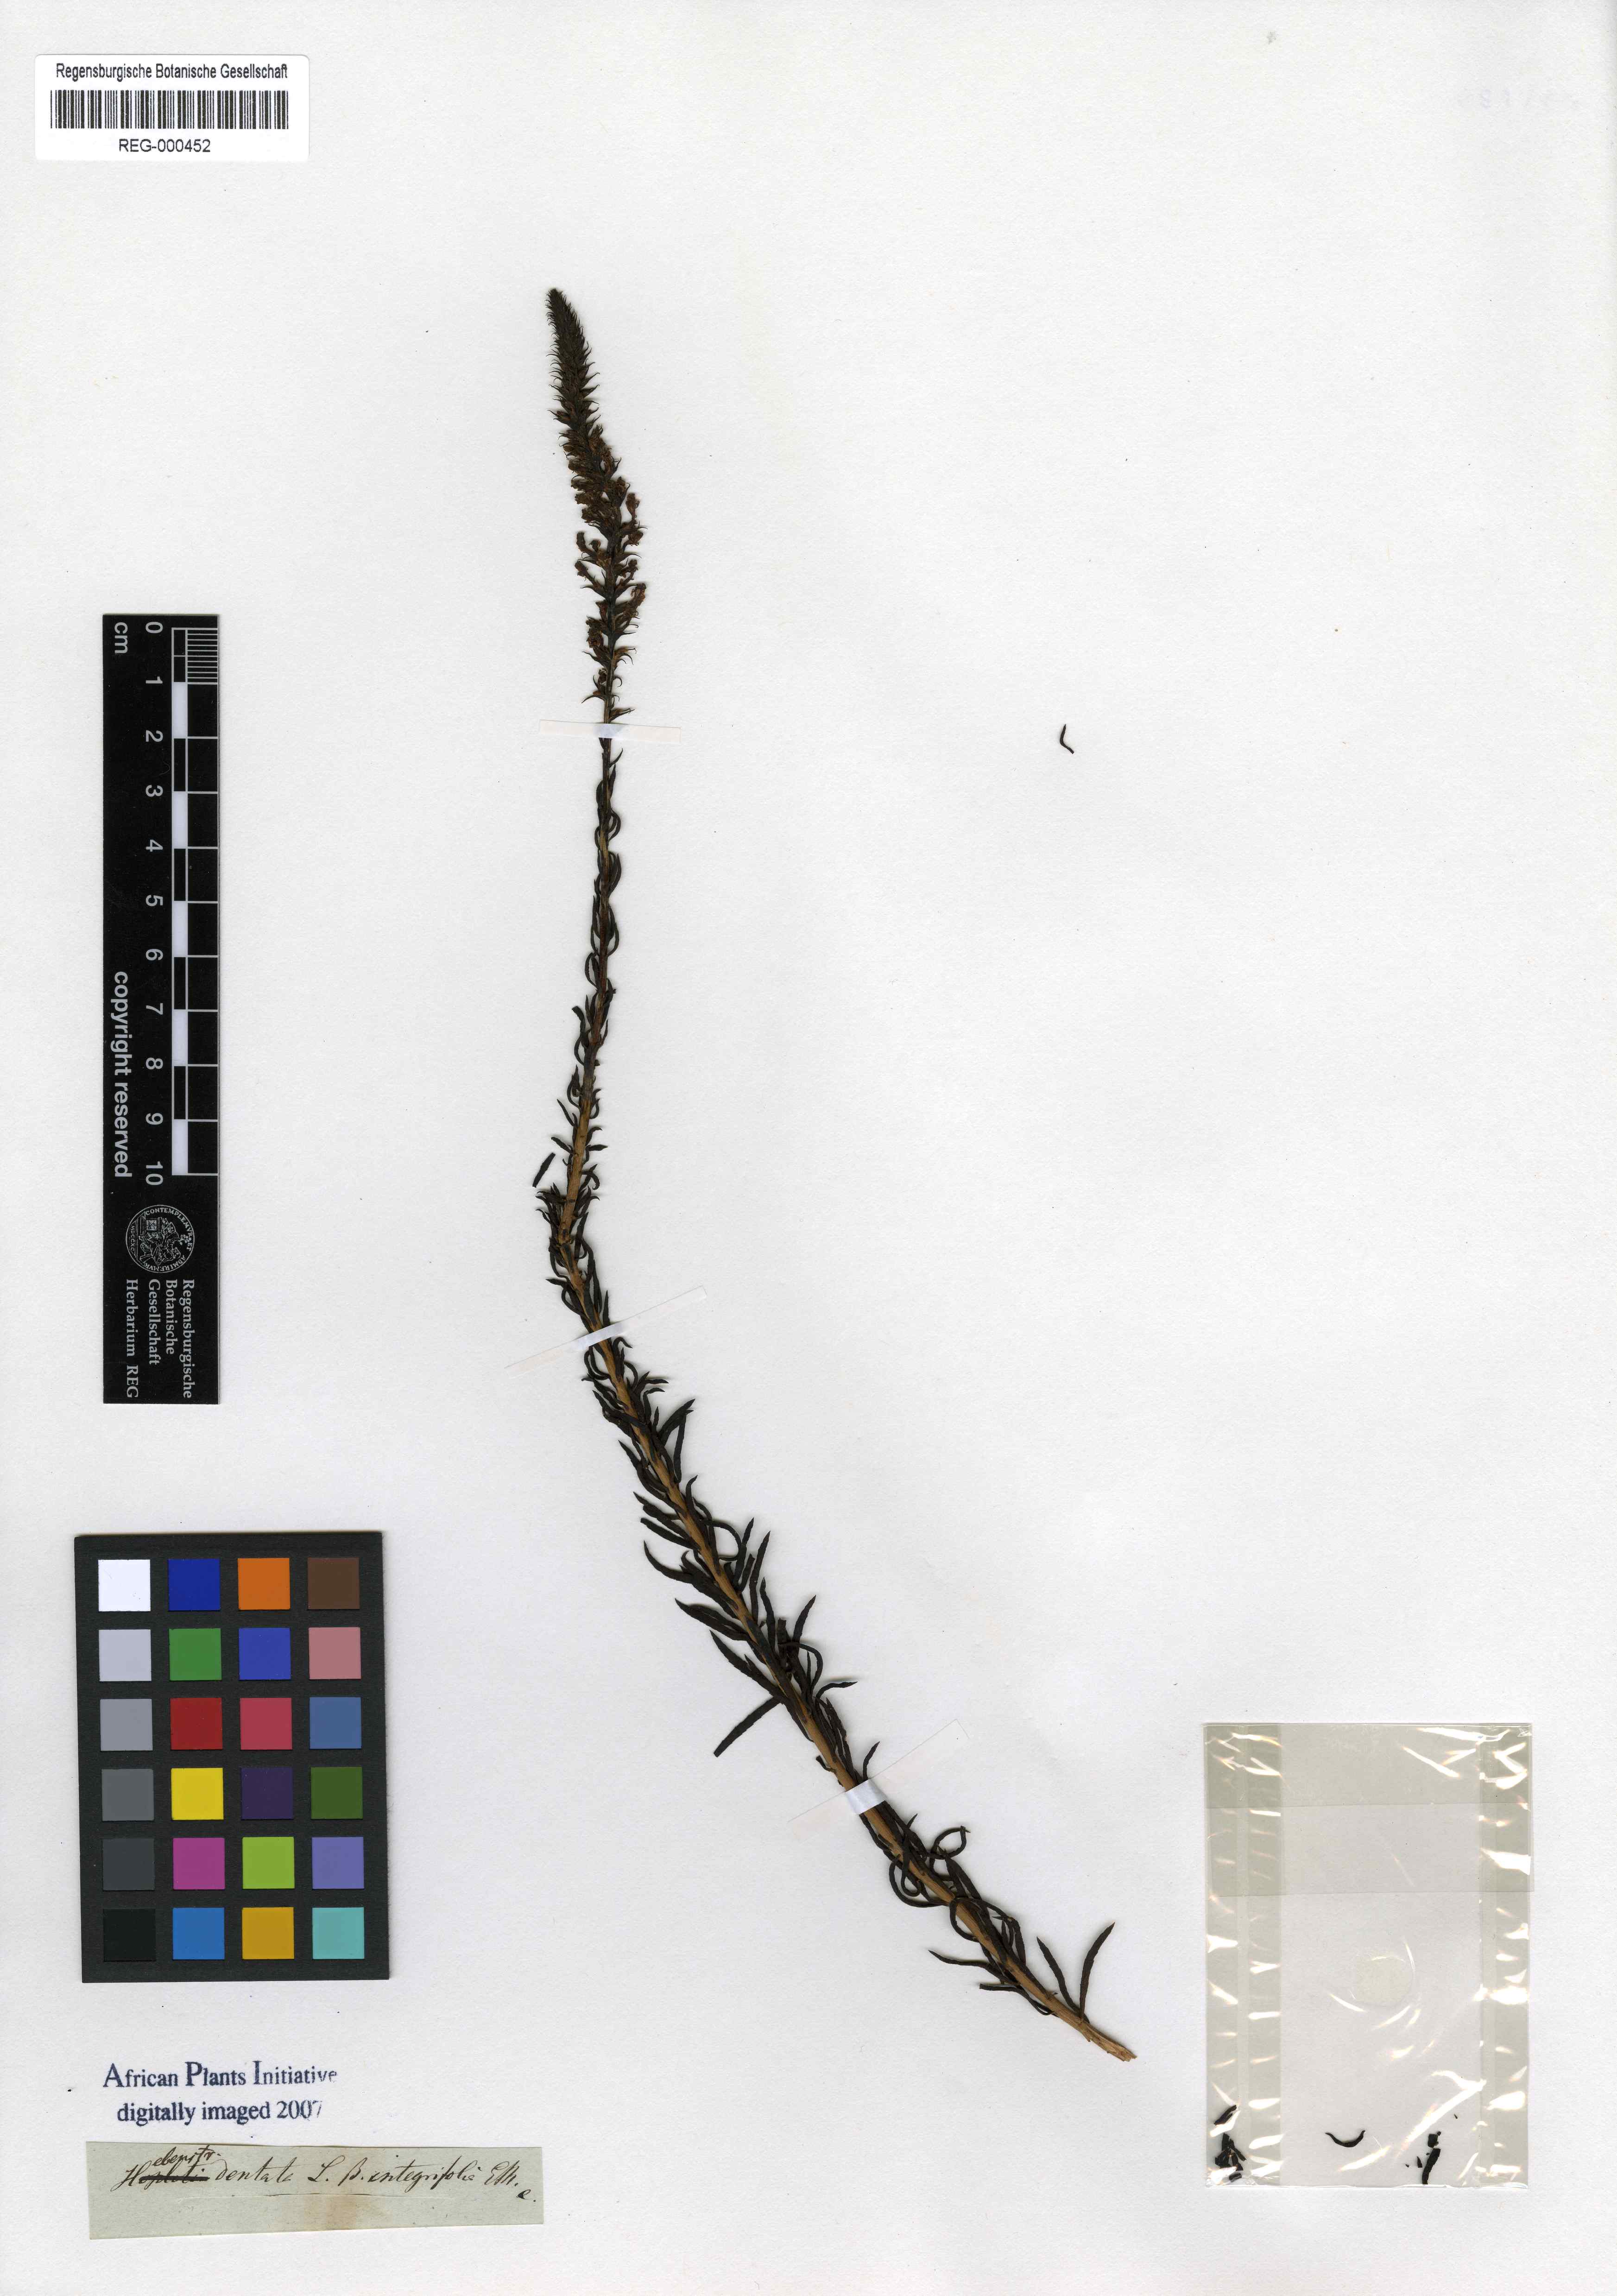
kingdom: Plantae
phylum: Tracheophyta
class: Magnoliopsida
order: Lamiales
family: Scrophulariaceae
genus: Hebenstretia
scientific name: Hebenstretia dentata
